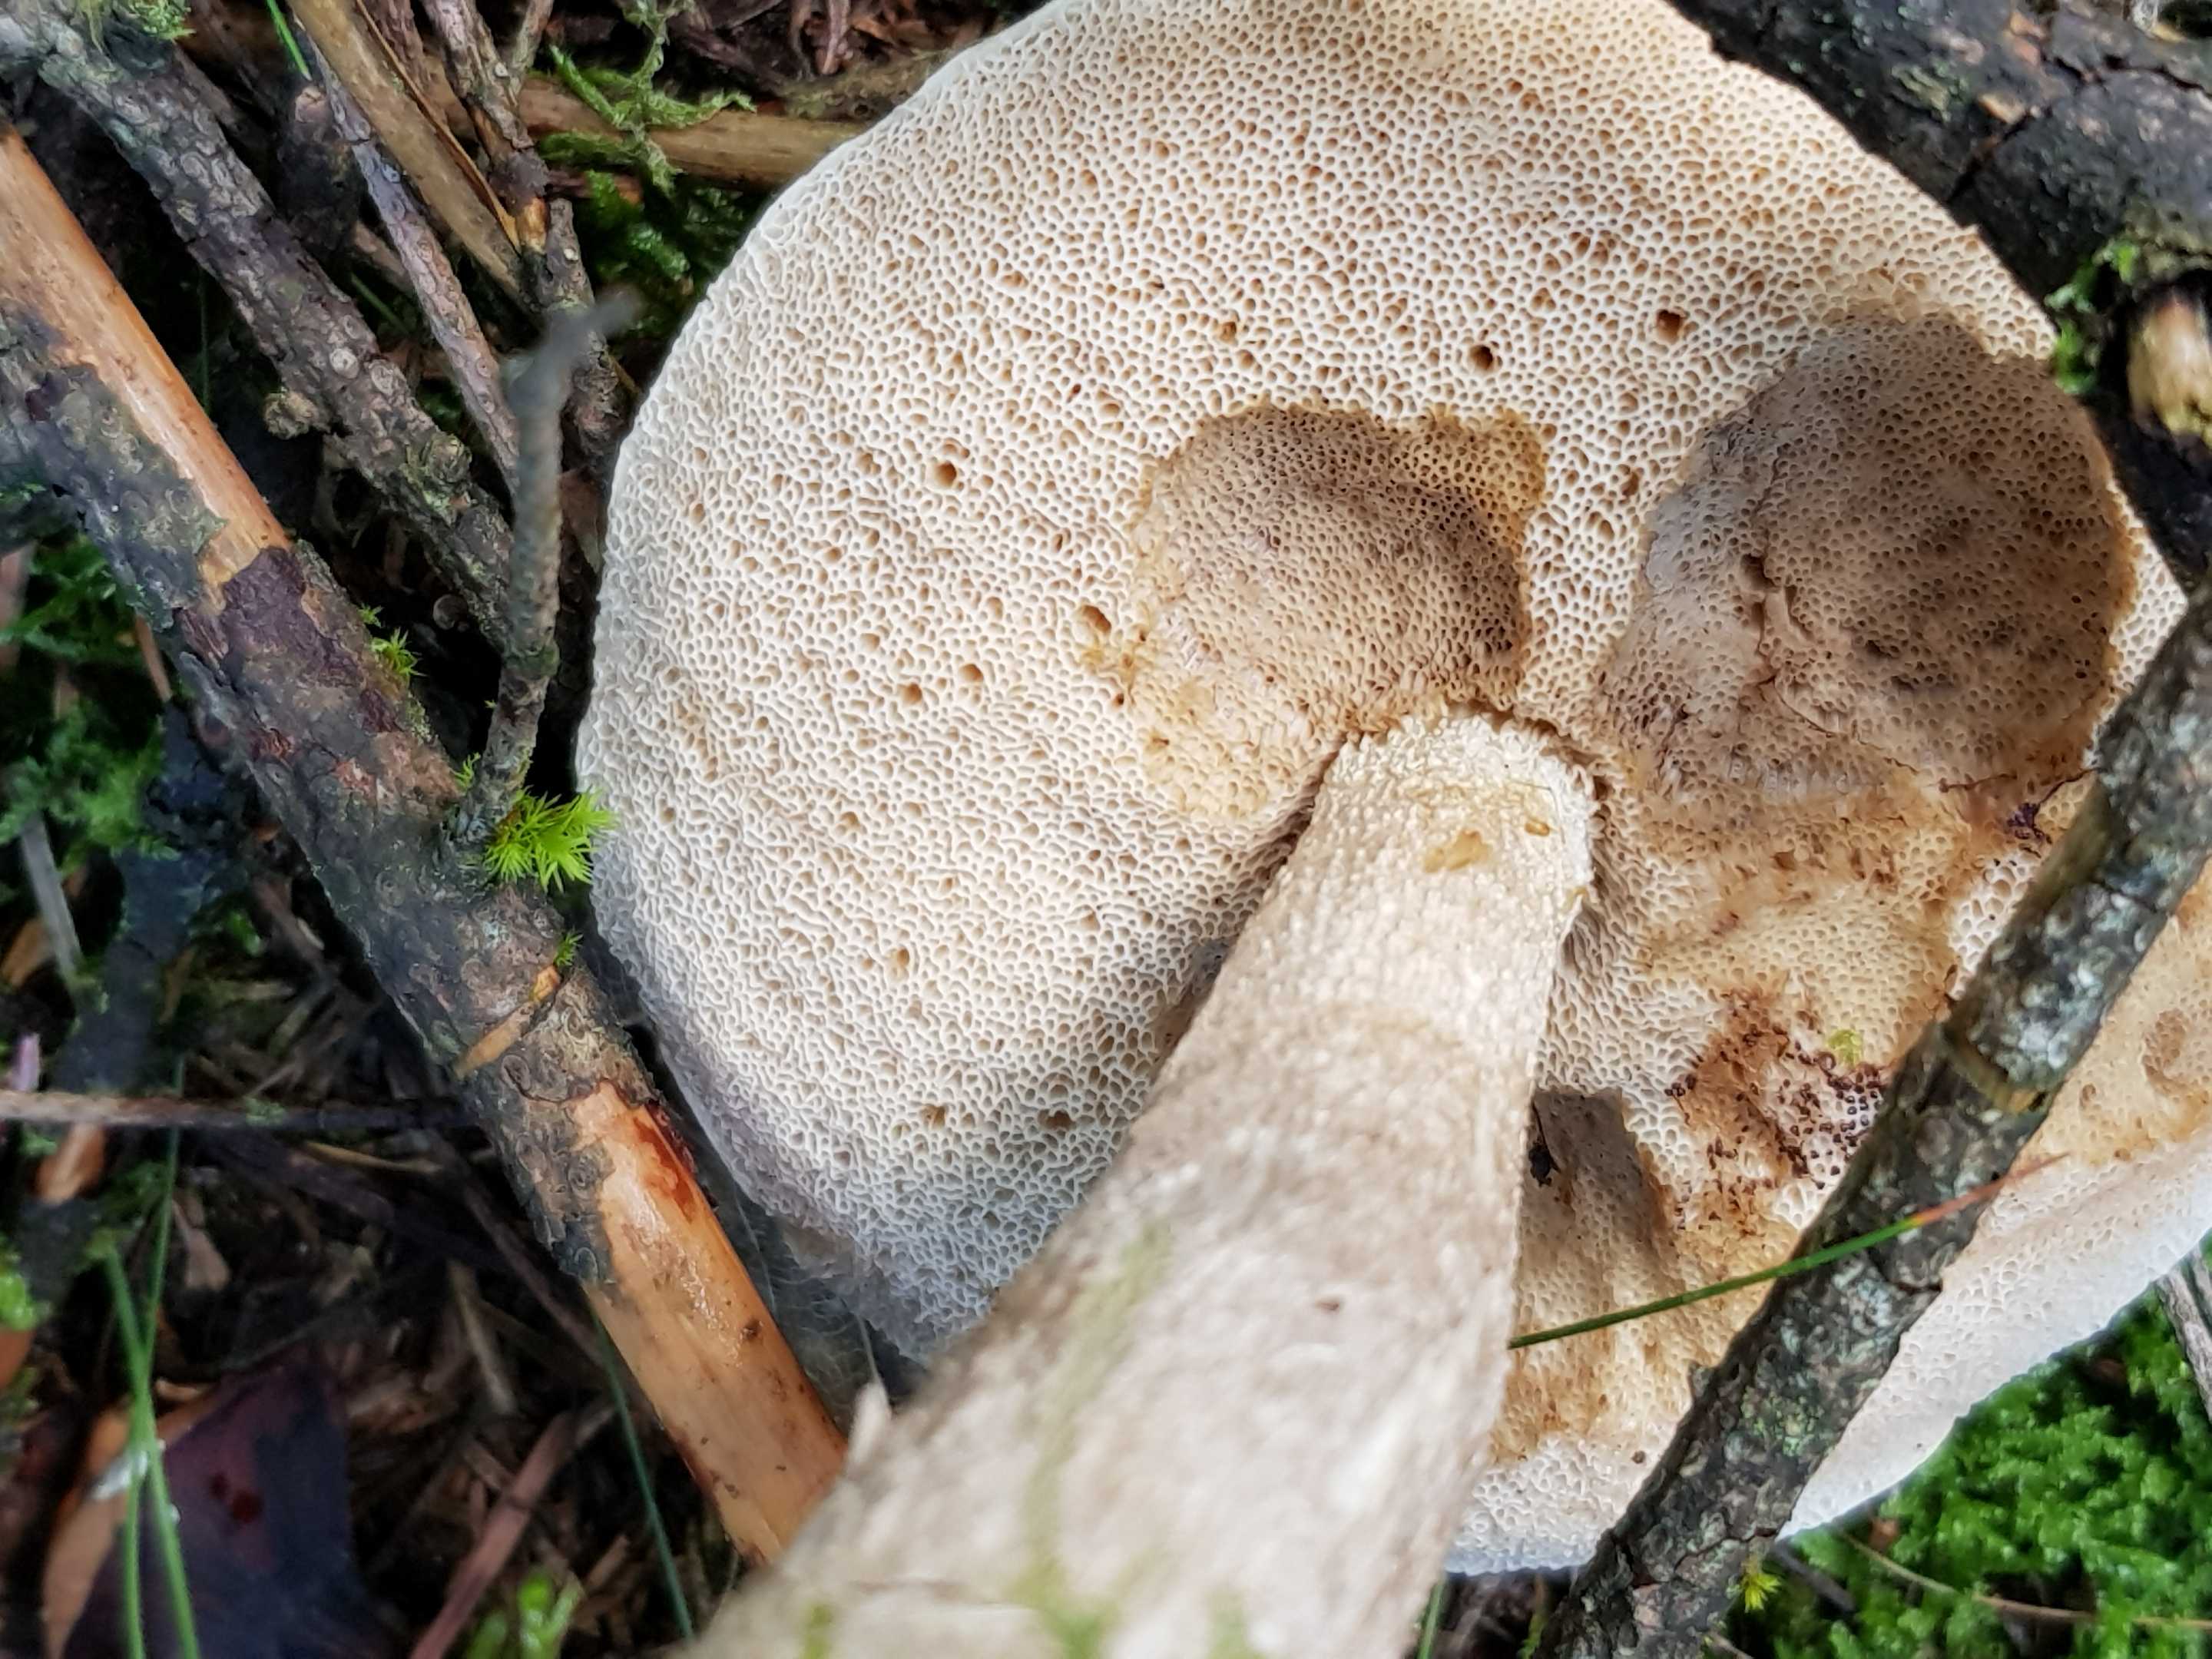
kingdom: Fungi
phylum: Basidiomycota
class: Agaricomycetes
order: Boletales
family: Boletaceae
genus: Leccinum
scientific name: Leccinum
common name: skælrørhat
